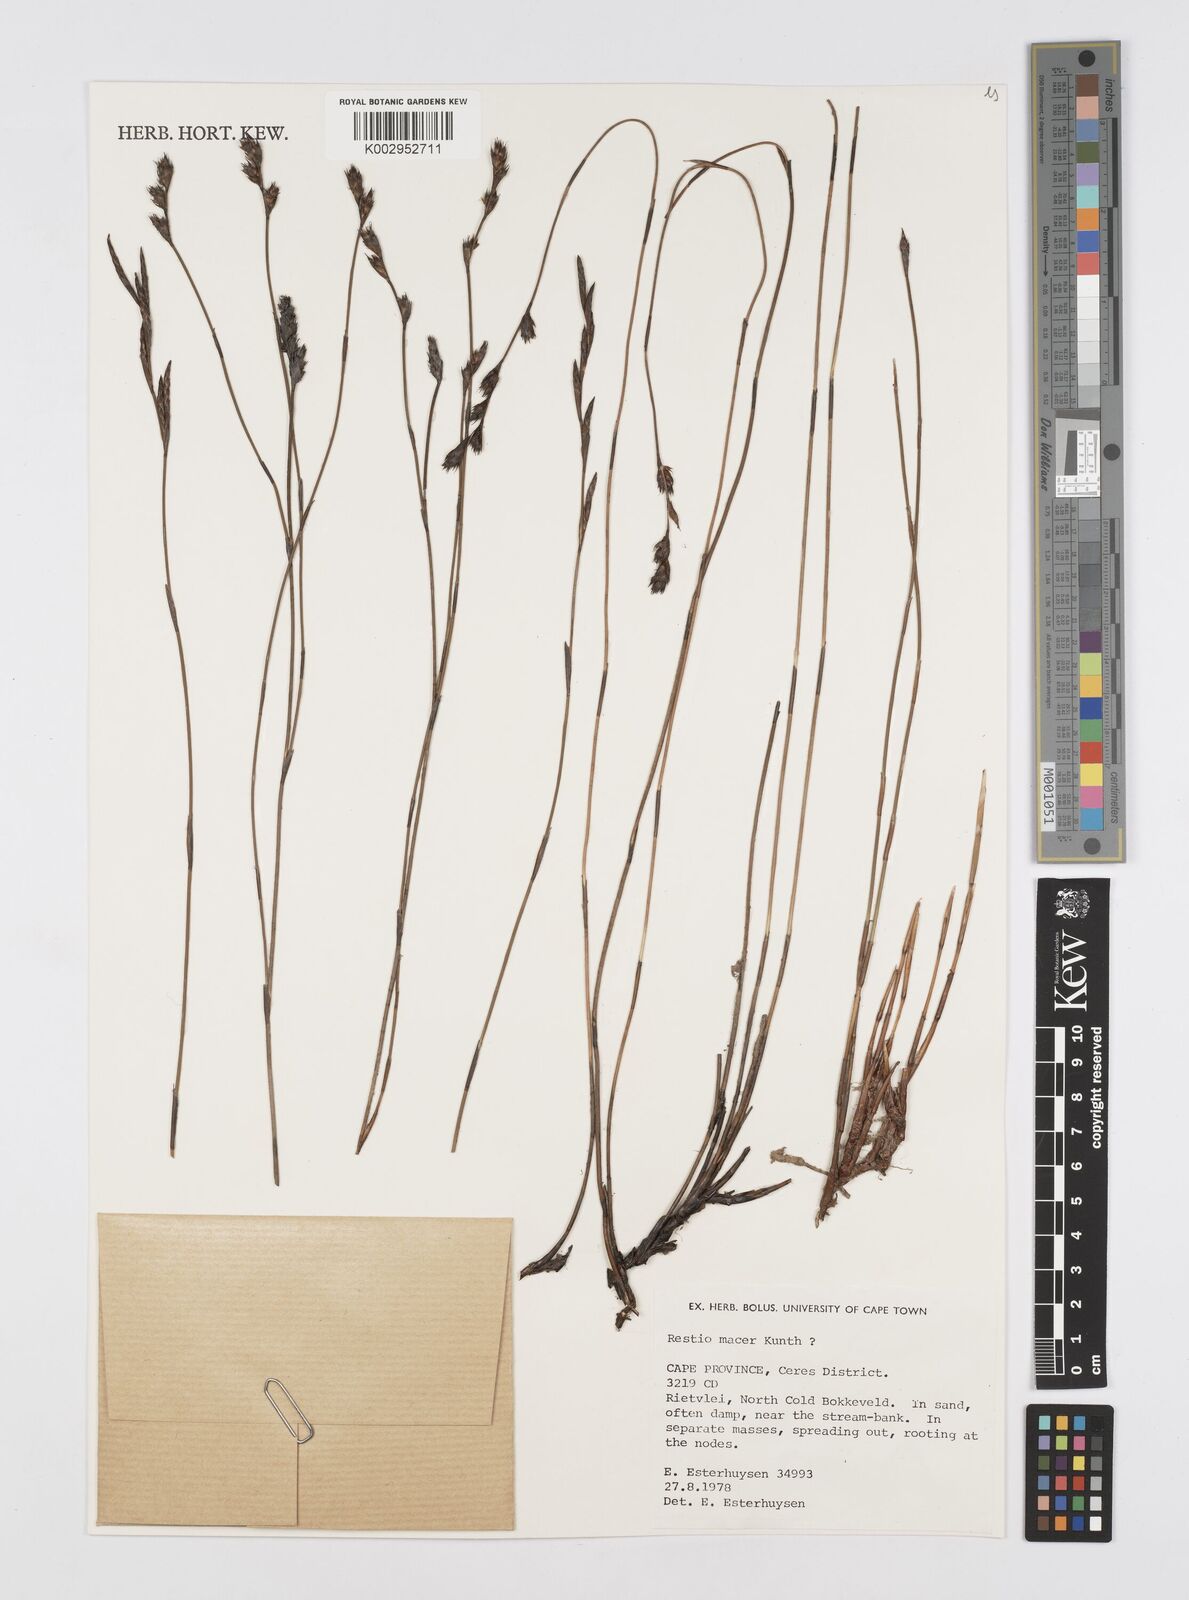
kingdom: Plantae
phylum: Tracheophyta
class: Liliopsida
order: Poales
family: Restionaceae
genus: Restio
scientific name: Restio macer
